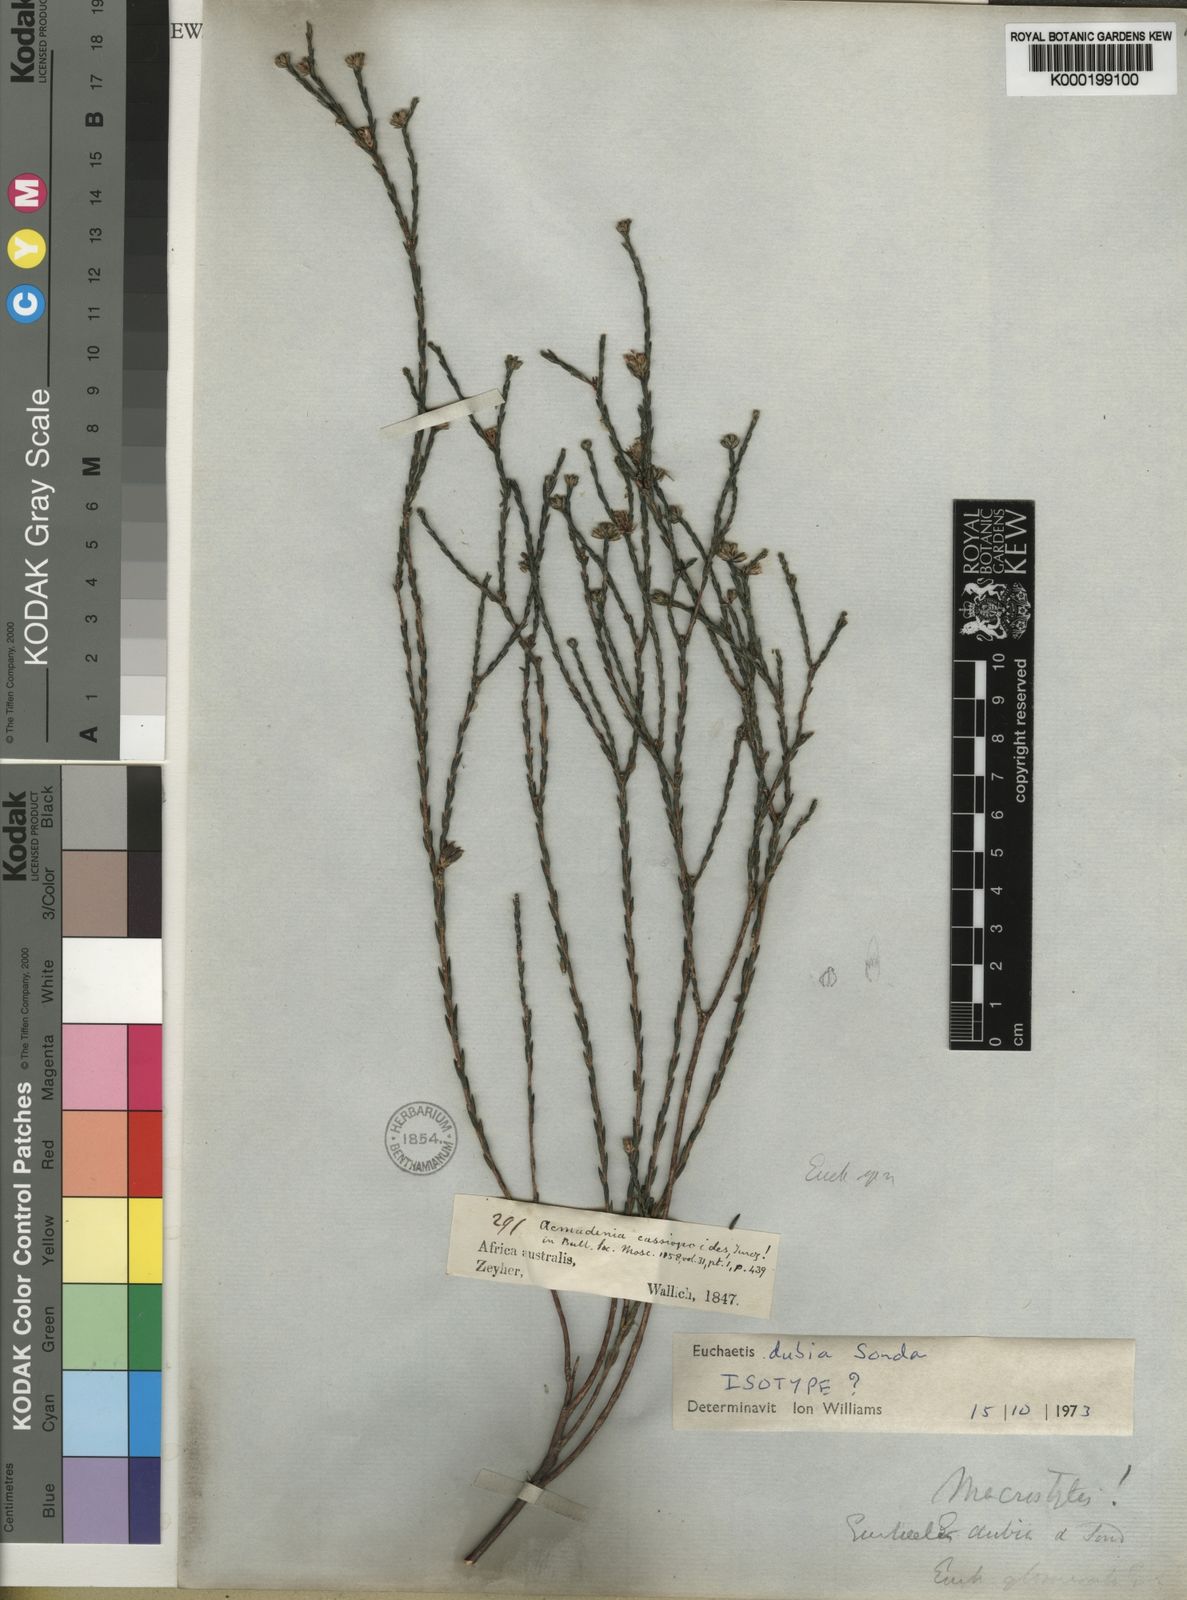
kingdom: Plantae
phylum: Tracheophyta
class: Magnoliopsida
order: Sapindales
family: Rutaceae
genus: Macrostylis
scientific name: Macrostylis cassiopoides
